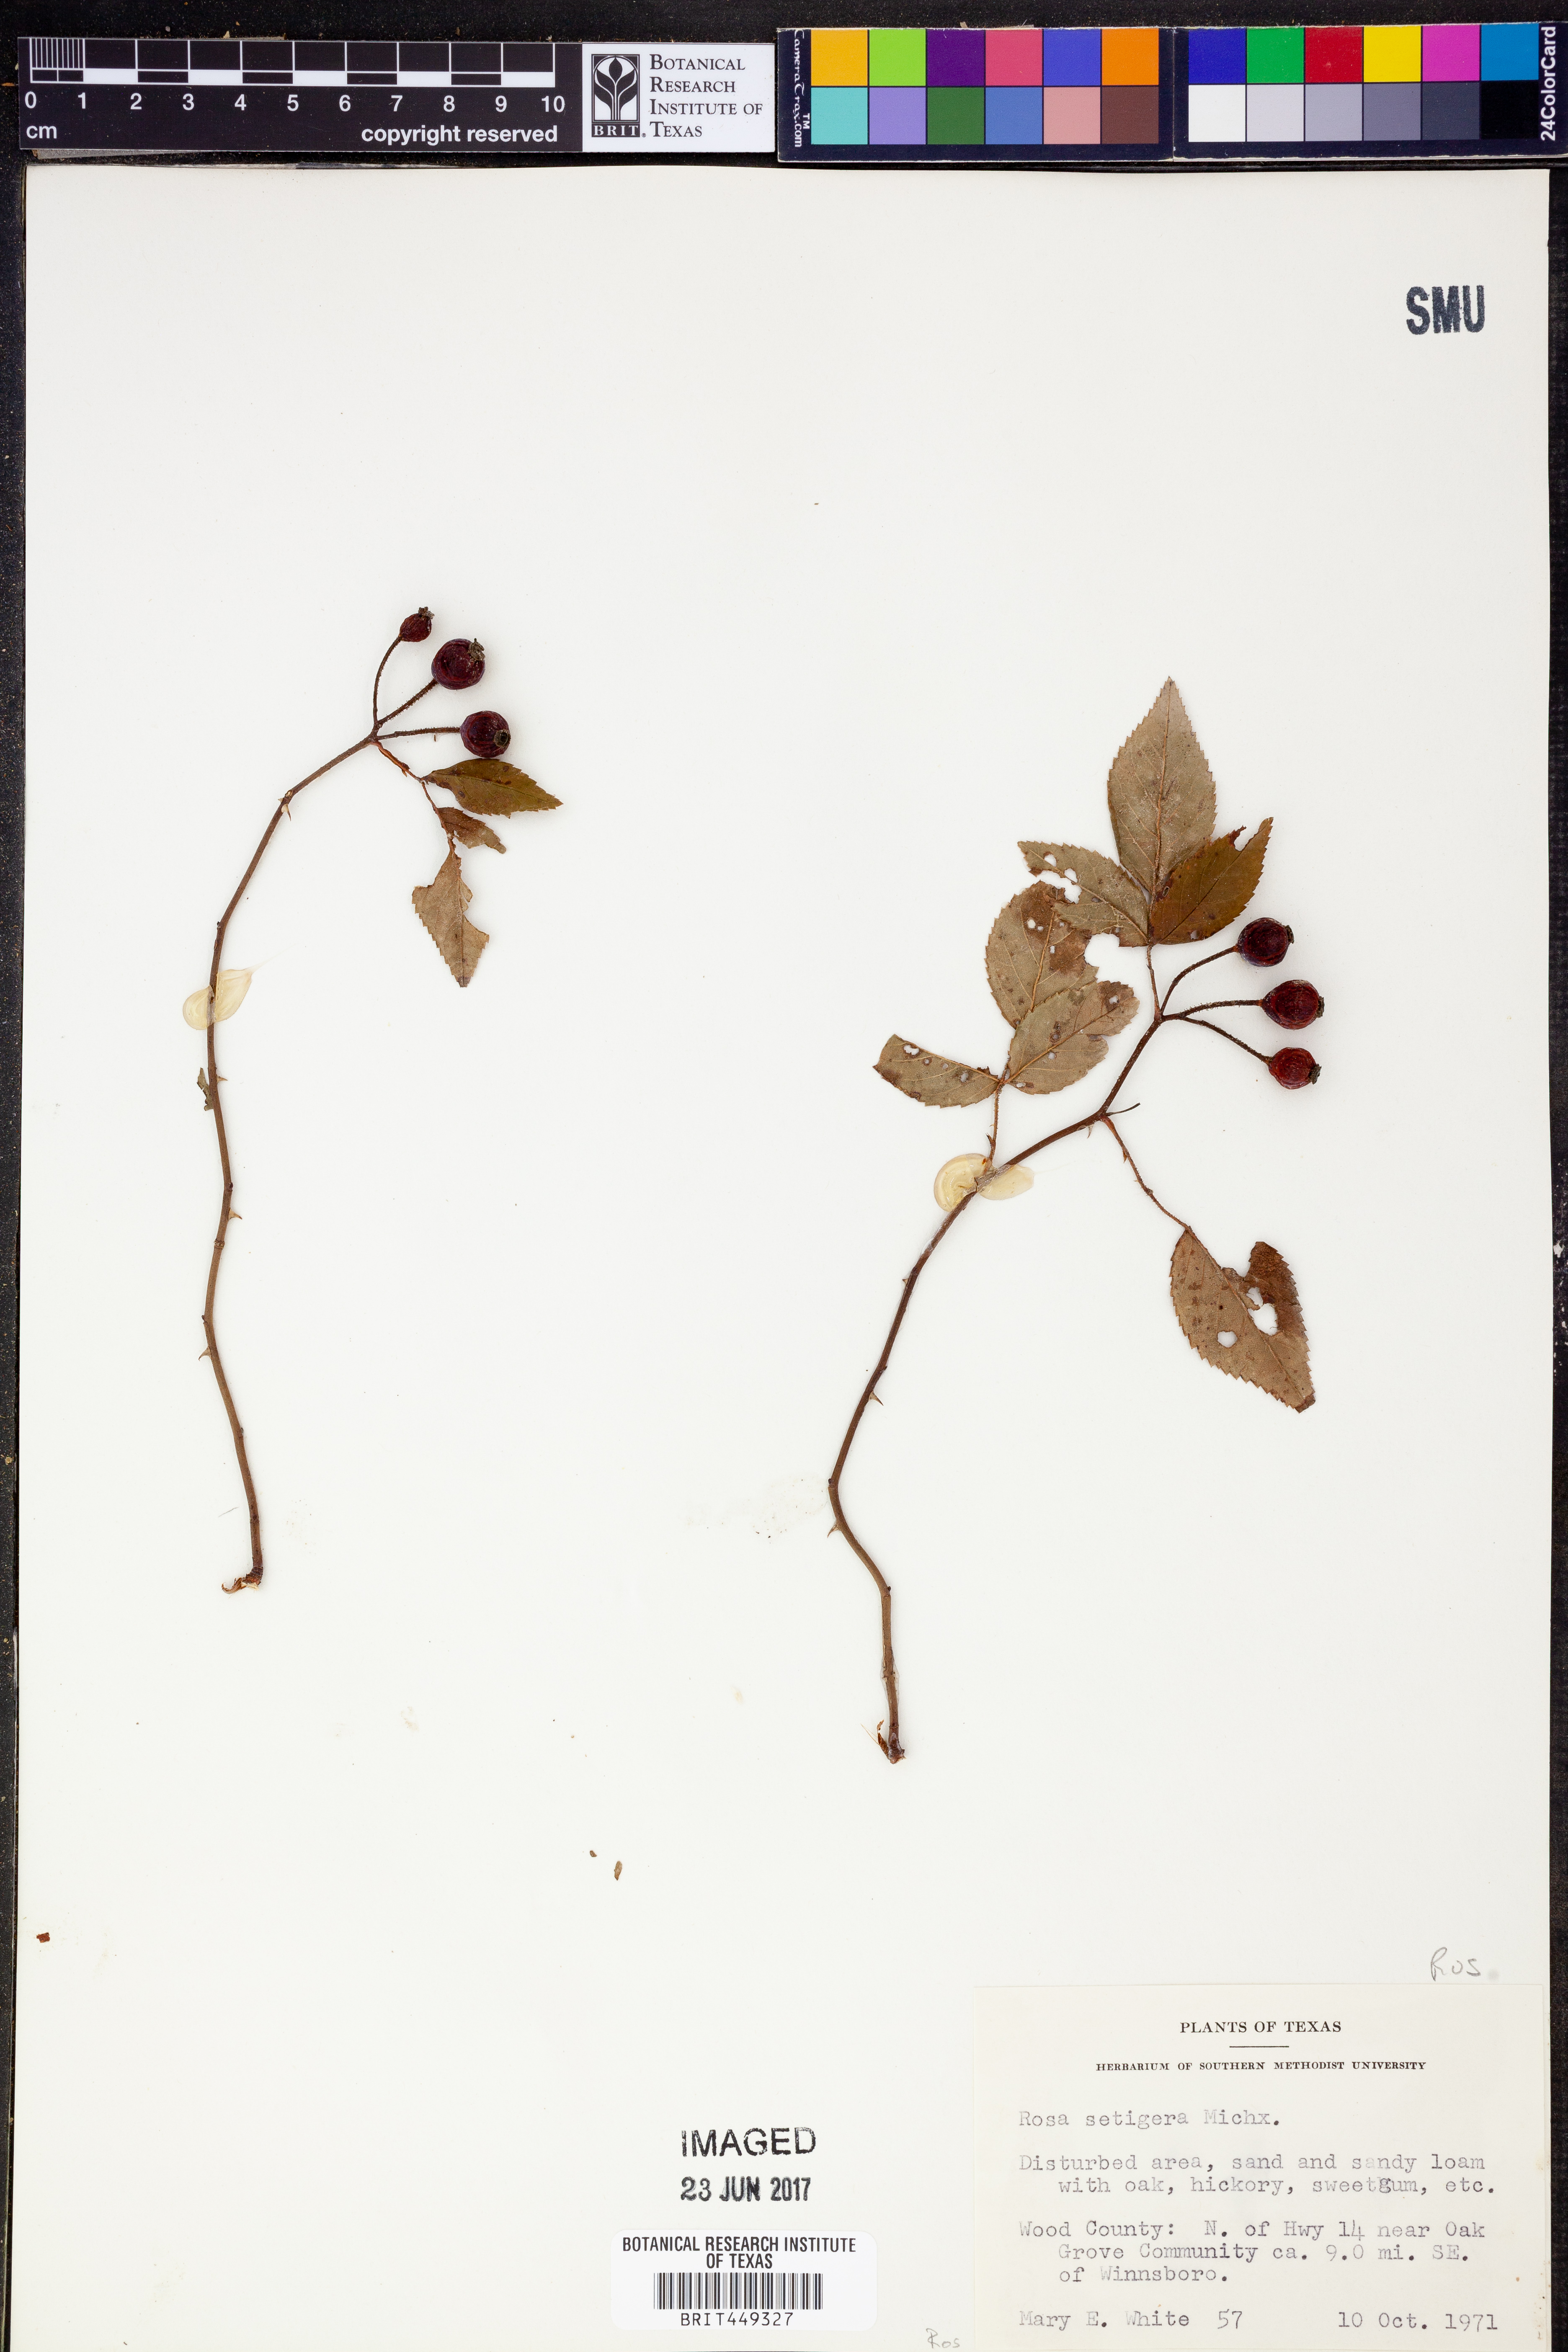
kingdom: Plantae
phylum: Tracheophyta
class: Magnoliopsida
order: Rosales
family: Rosaceae
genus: Rosa
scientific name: Rosa setigera
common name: Prairie rose
